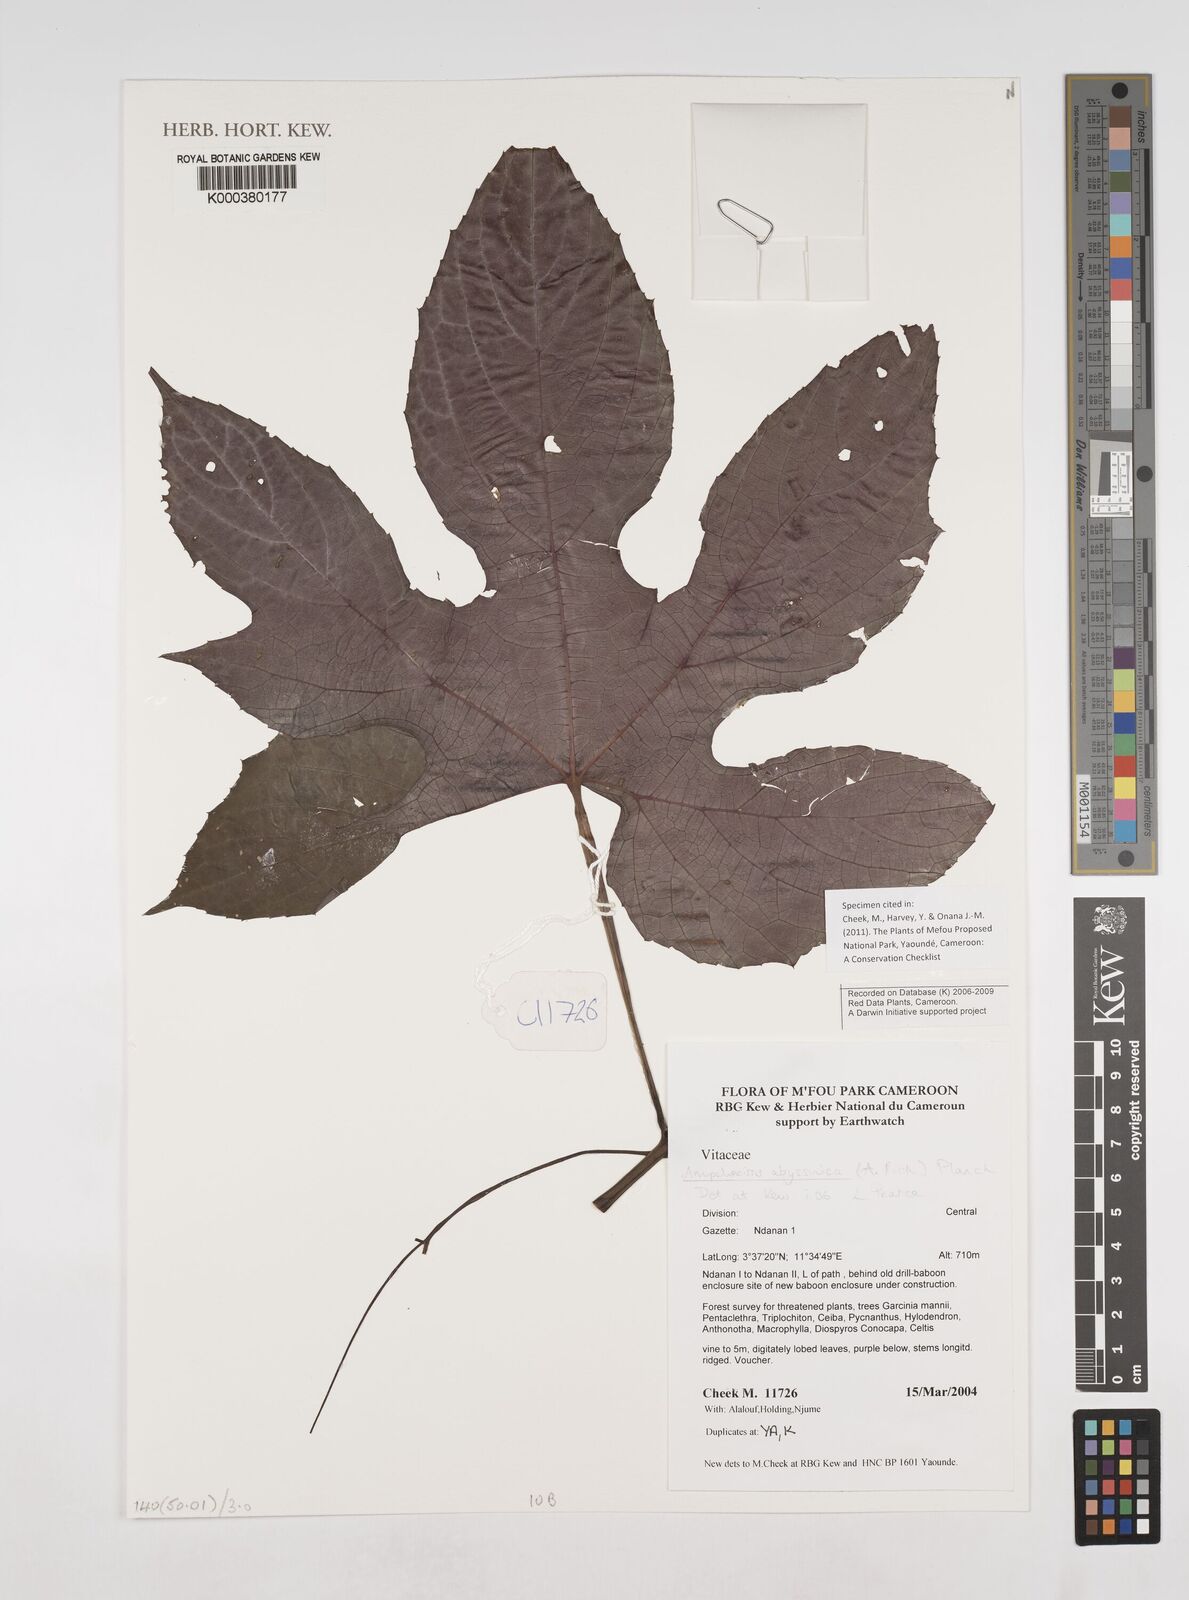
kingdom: Plantae
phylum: Tracheophyta
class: Magnoliopsida
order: Vitales
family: Vitaceae
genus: Ampelocissus
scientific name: Ampelocissus abyssinica
